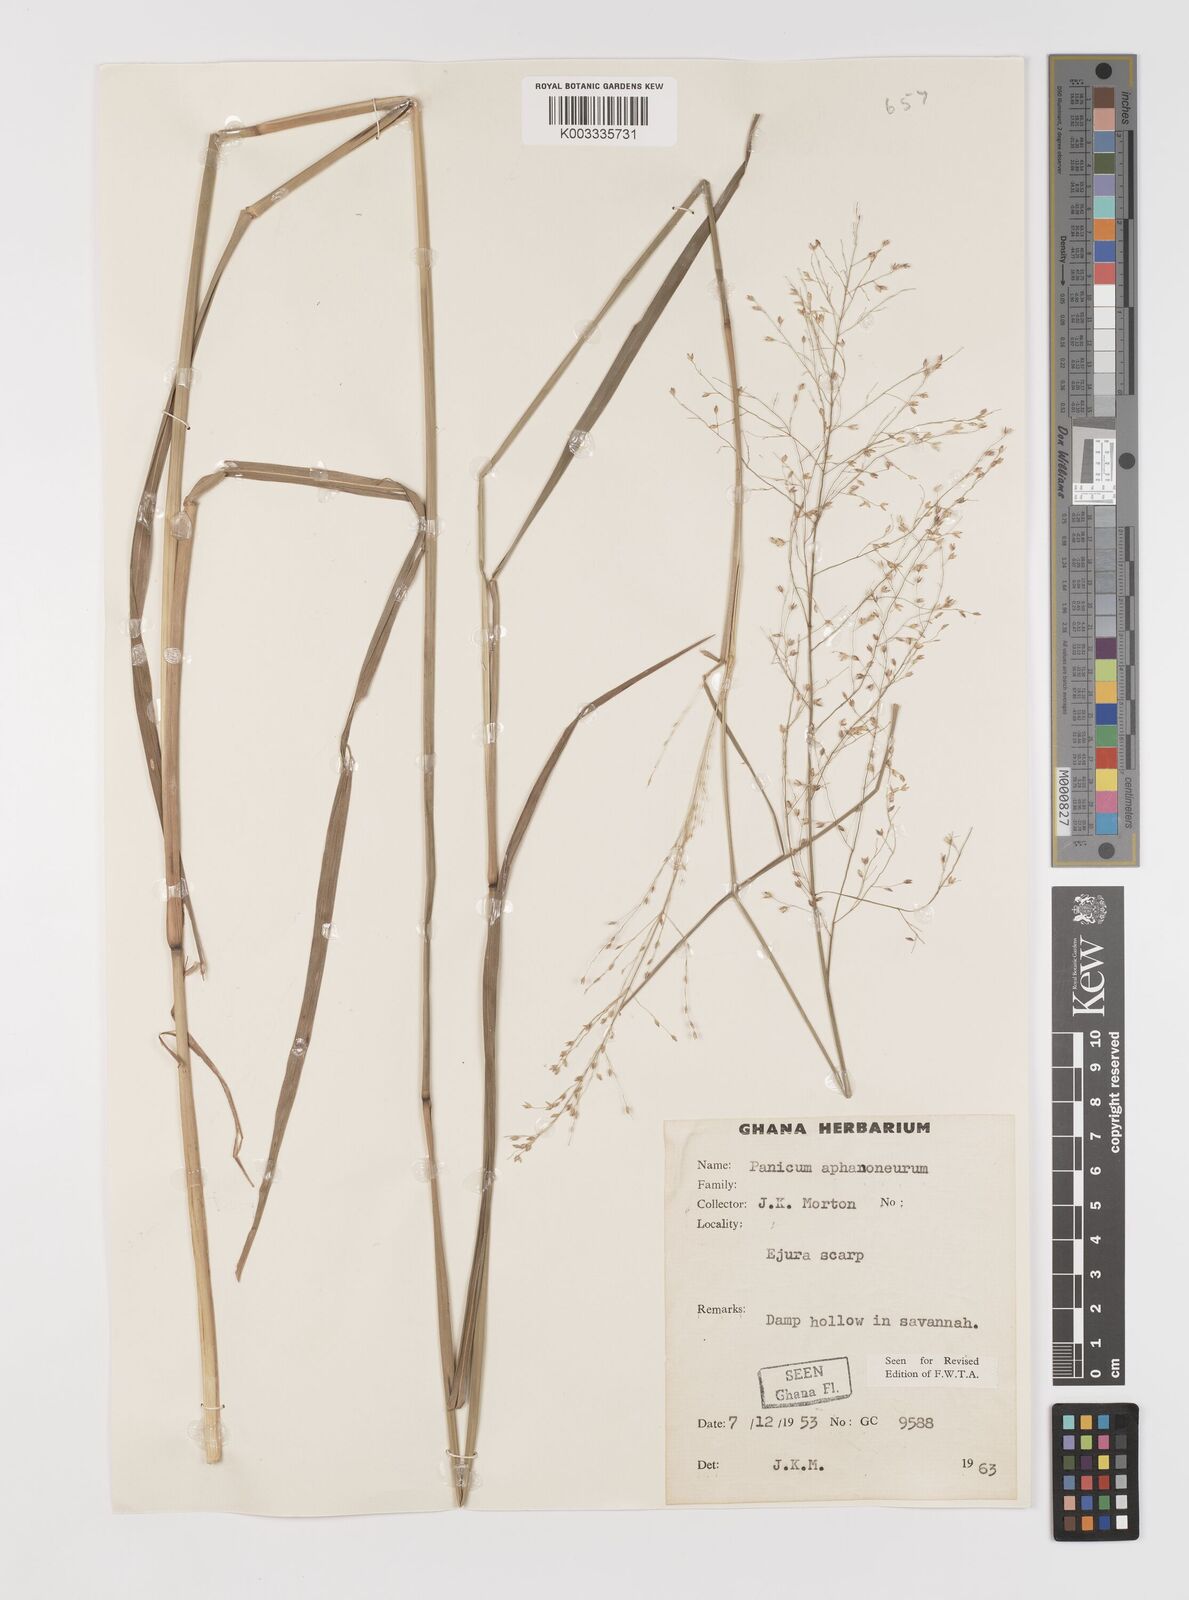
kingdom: Plantae
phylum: Tracheophyta
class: Liliopsida
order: Poales
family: Poaceae
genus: Panicum
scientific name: Panicum fluviicola
